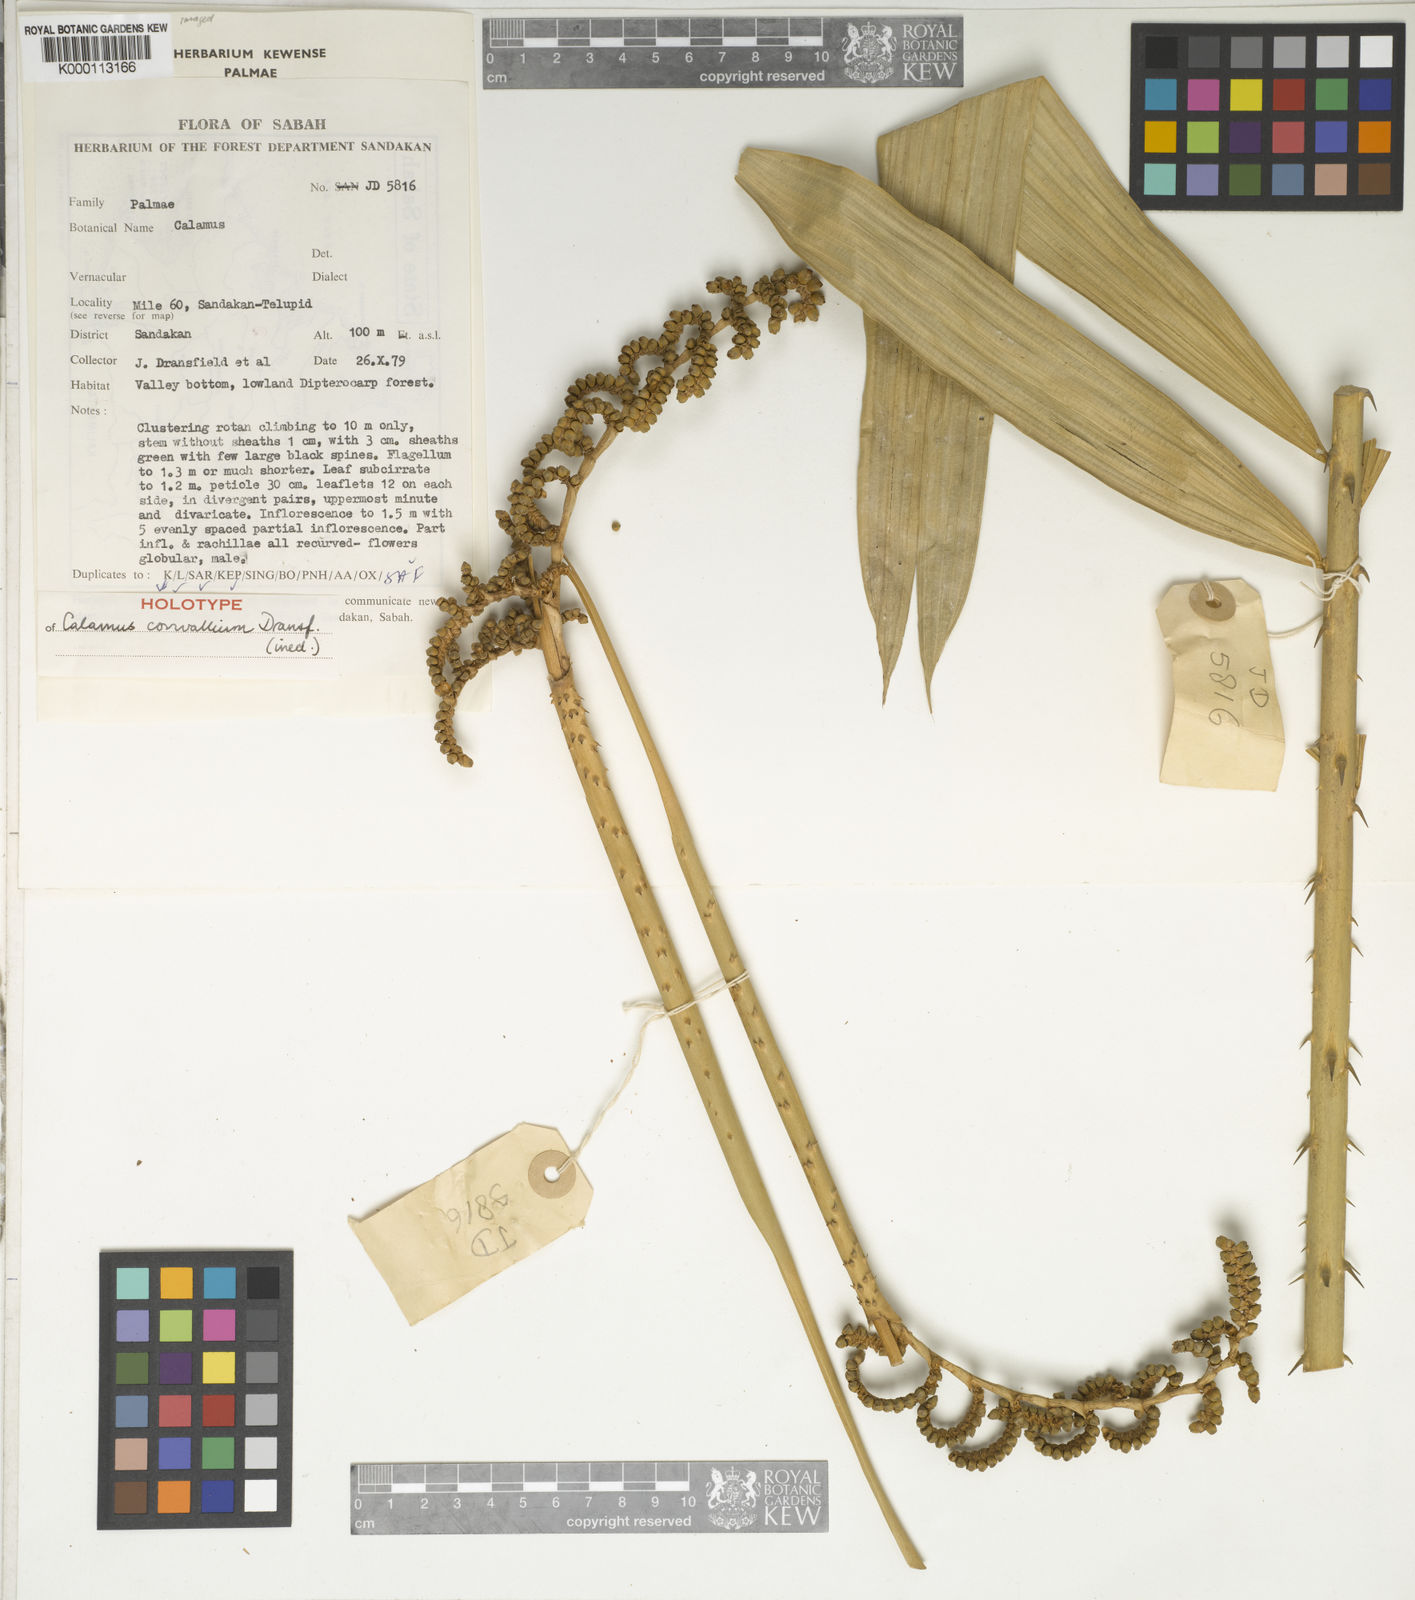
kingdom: Plantae
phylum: Tracheophyta
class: Liliopsida
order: Arecales
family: Arecaceae
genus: Calamus
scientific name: Calamus convallium
